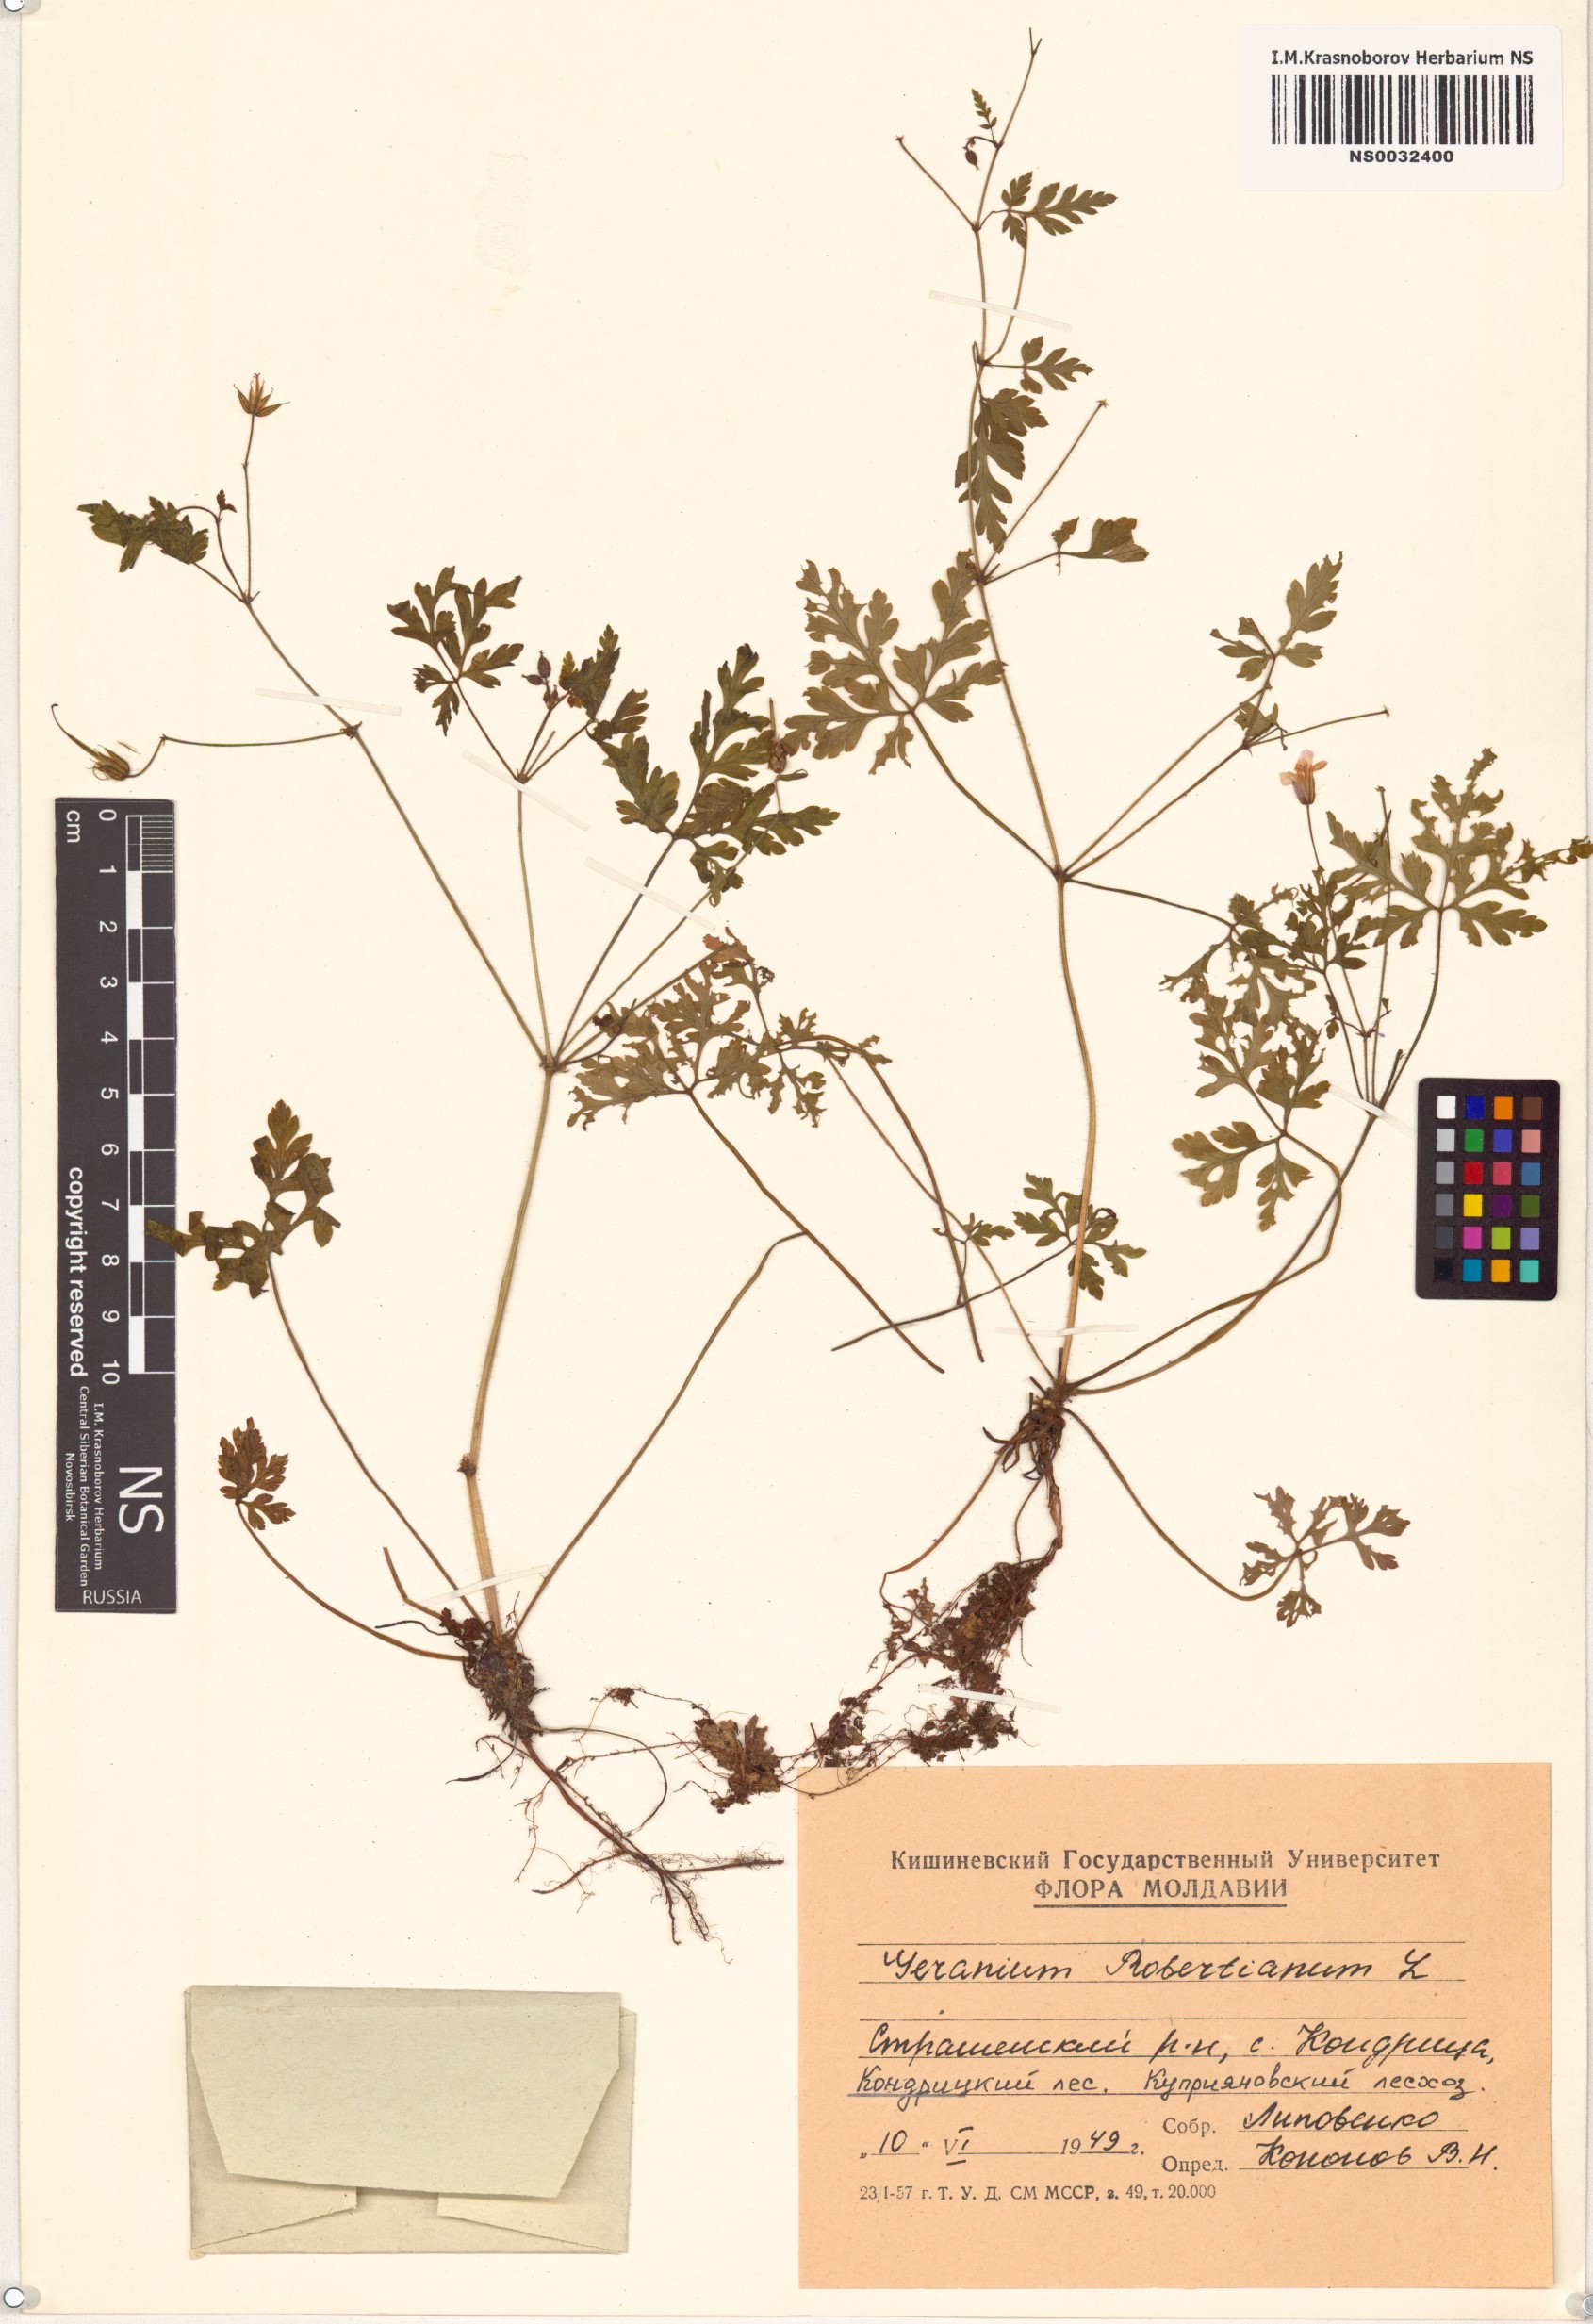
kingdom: Plantae
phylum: Tracheophyta
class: Magnoliopsida
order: Geraniales
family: Geraniaceae
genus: Geranium
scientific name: Geranium robertianum
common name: Herb-robert
